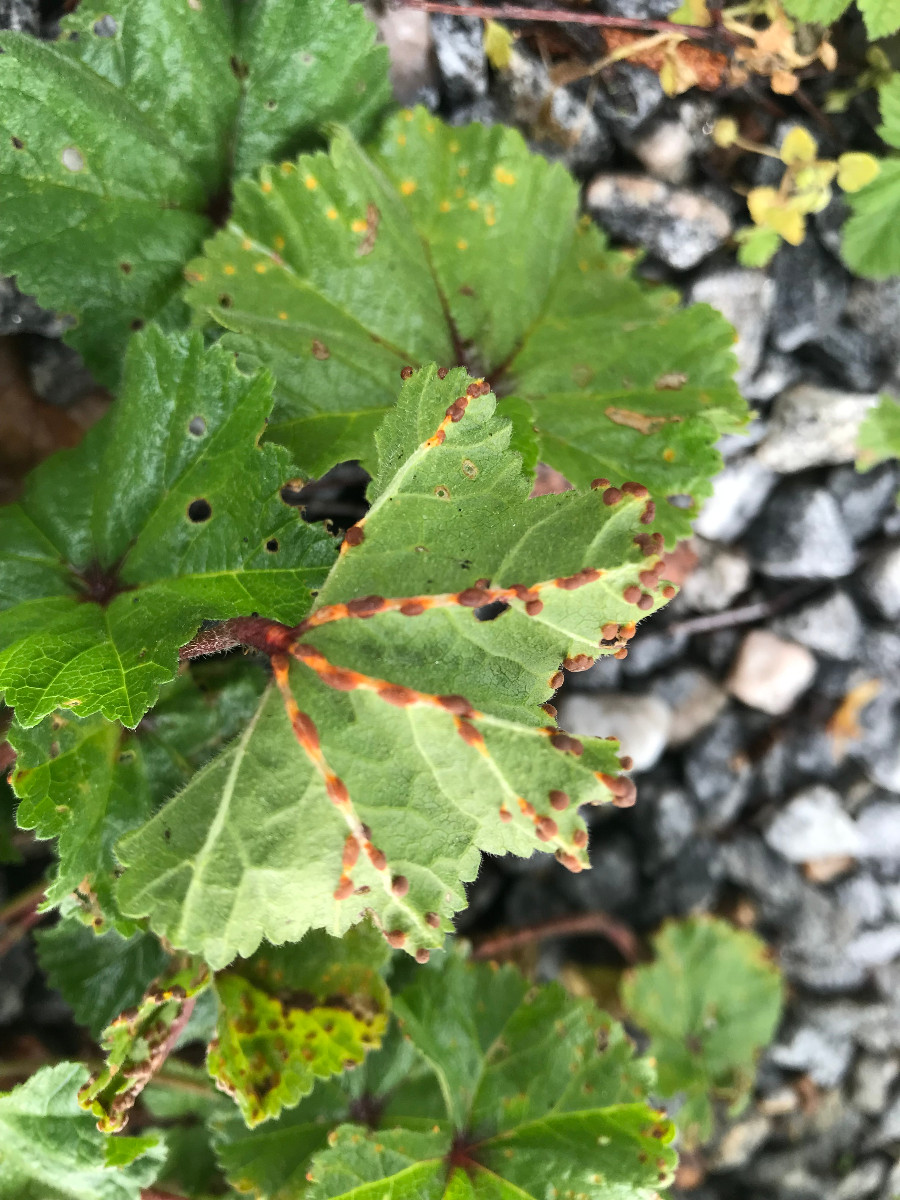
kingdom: Fungi
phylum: Basidiomycota
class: Pucciniomycetes
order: Pucciniales
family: Pucciniaceae
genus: Puccinia
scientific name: Puccinia malvacearum
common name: stokrose-tvecellerust
